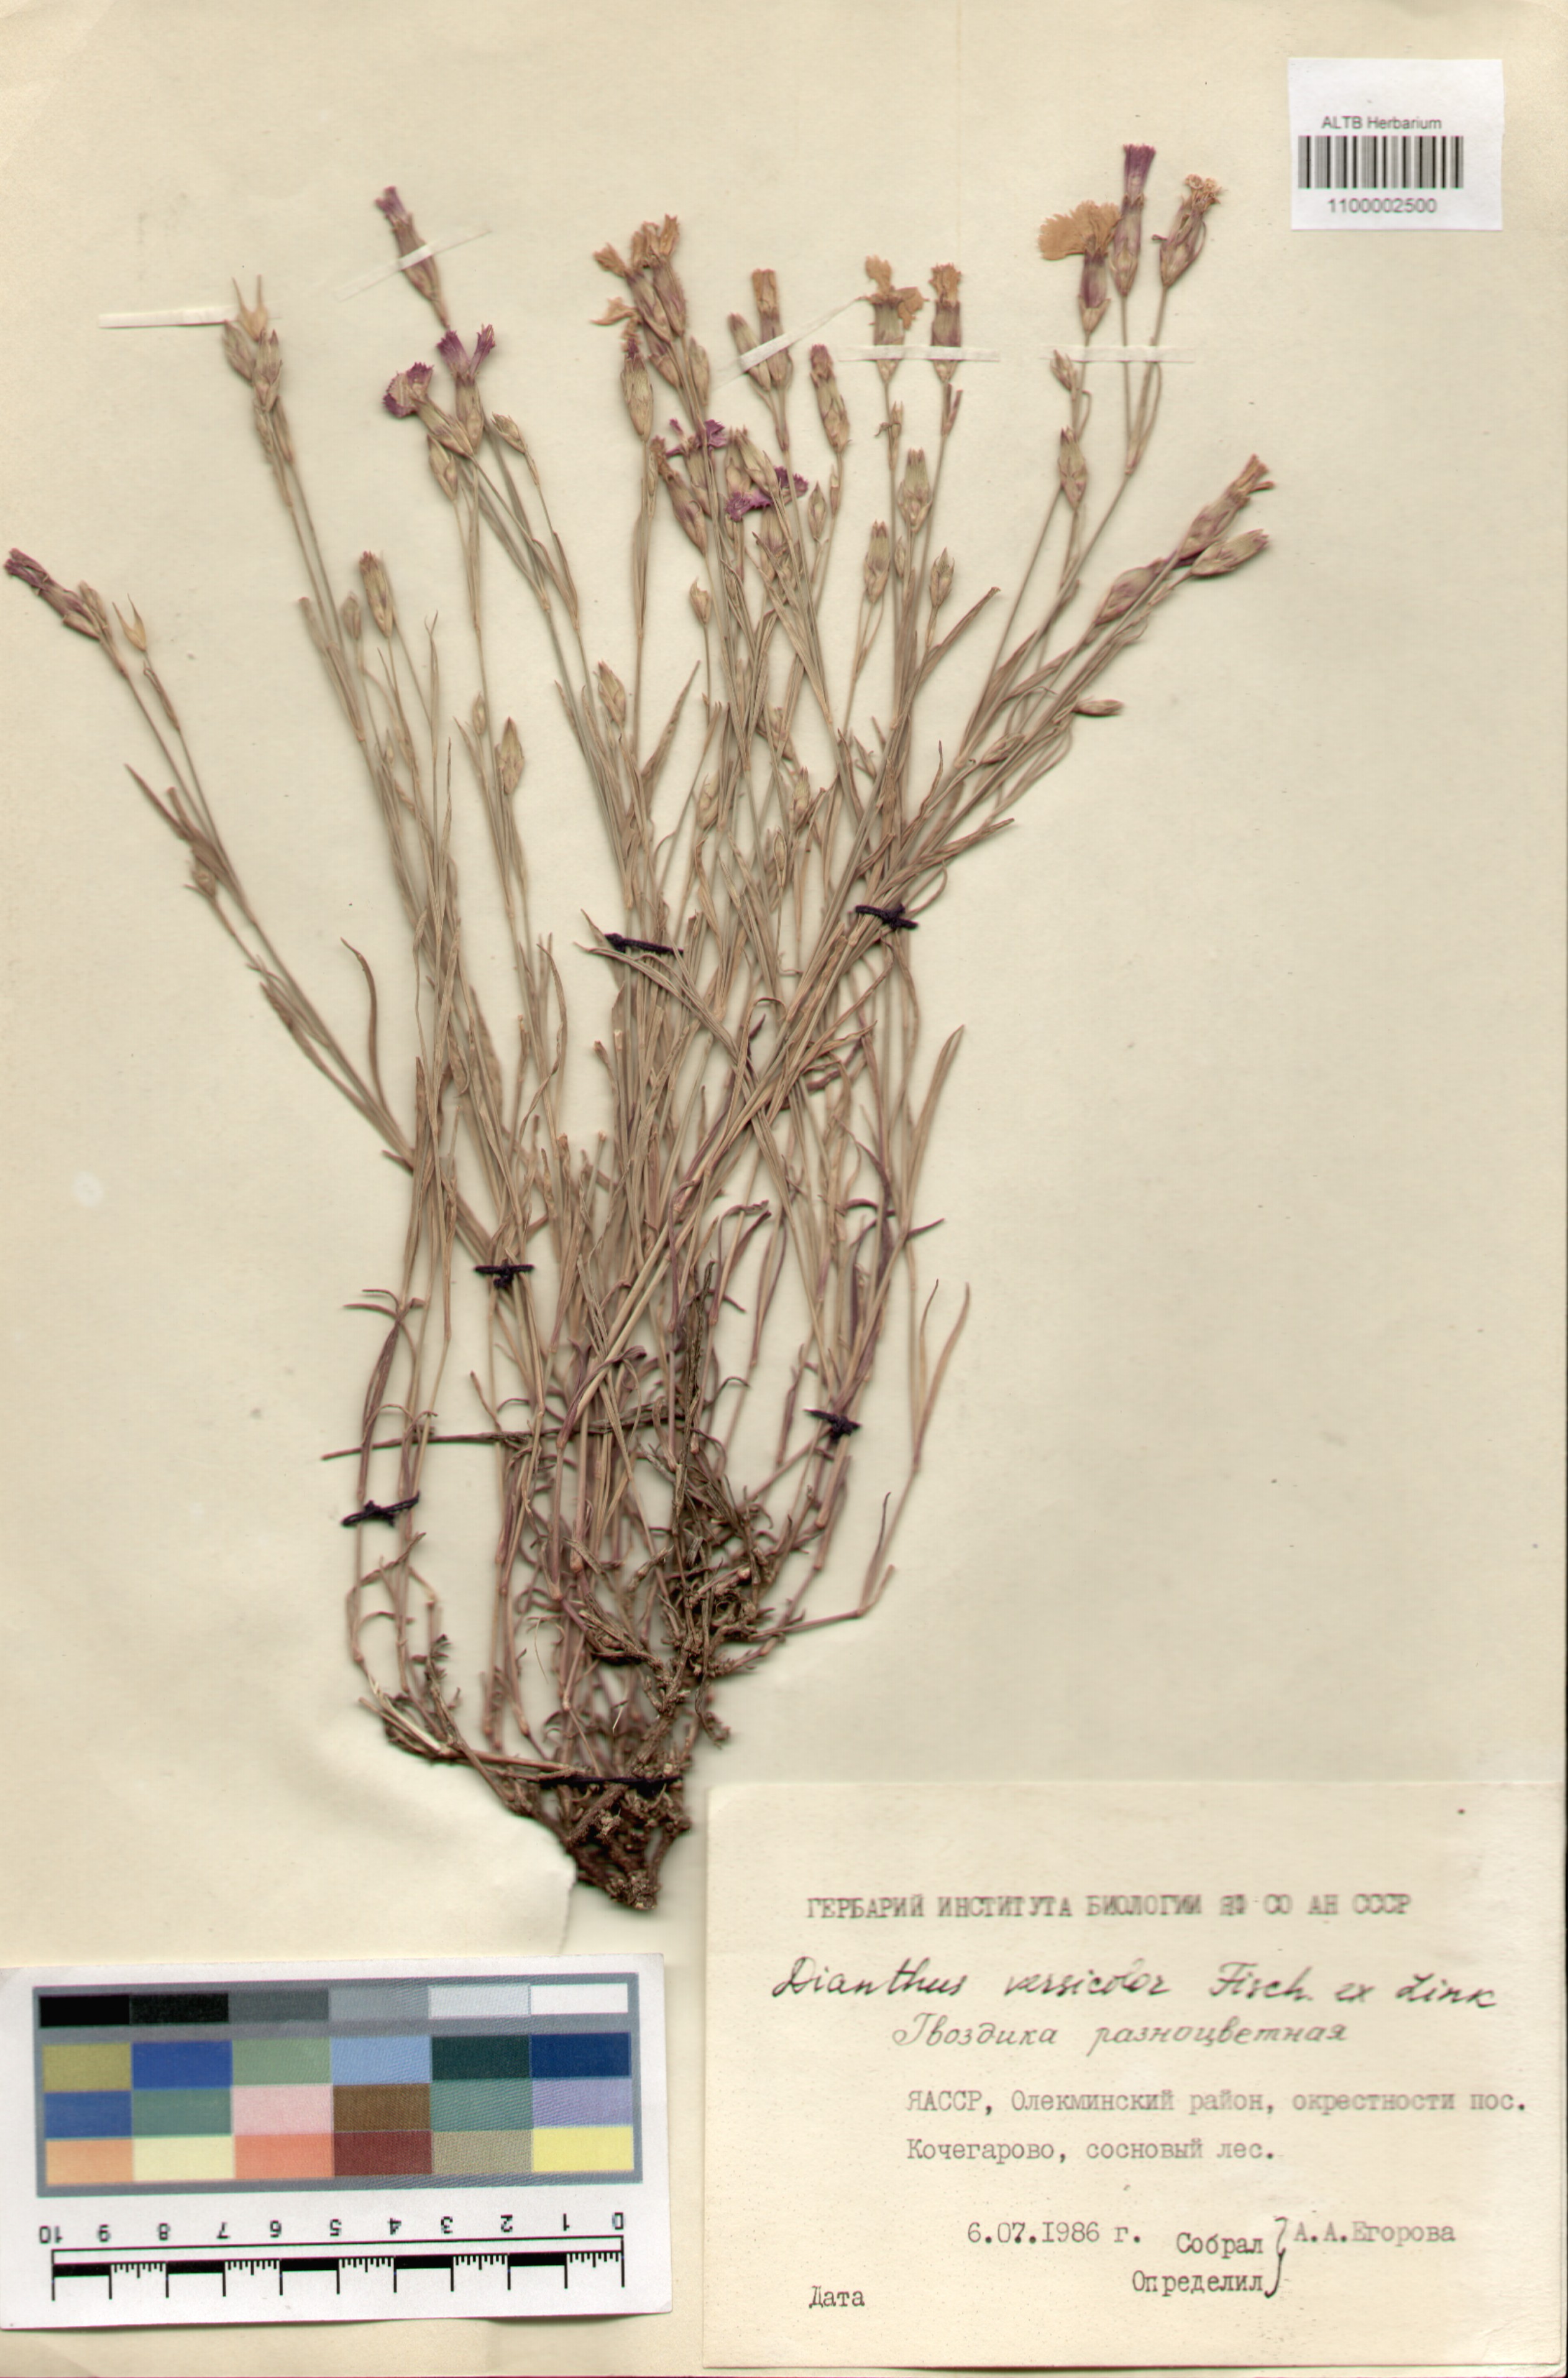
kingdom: Plantae
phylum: Tracheophyta
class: Magnoliopsida
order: Caryophyllales
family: Caryophyllaceae
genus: Dianthus
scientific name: Dianthus chinensis
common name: Rainbow pink
